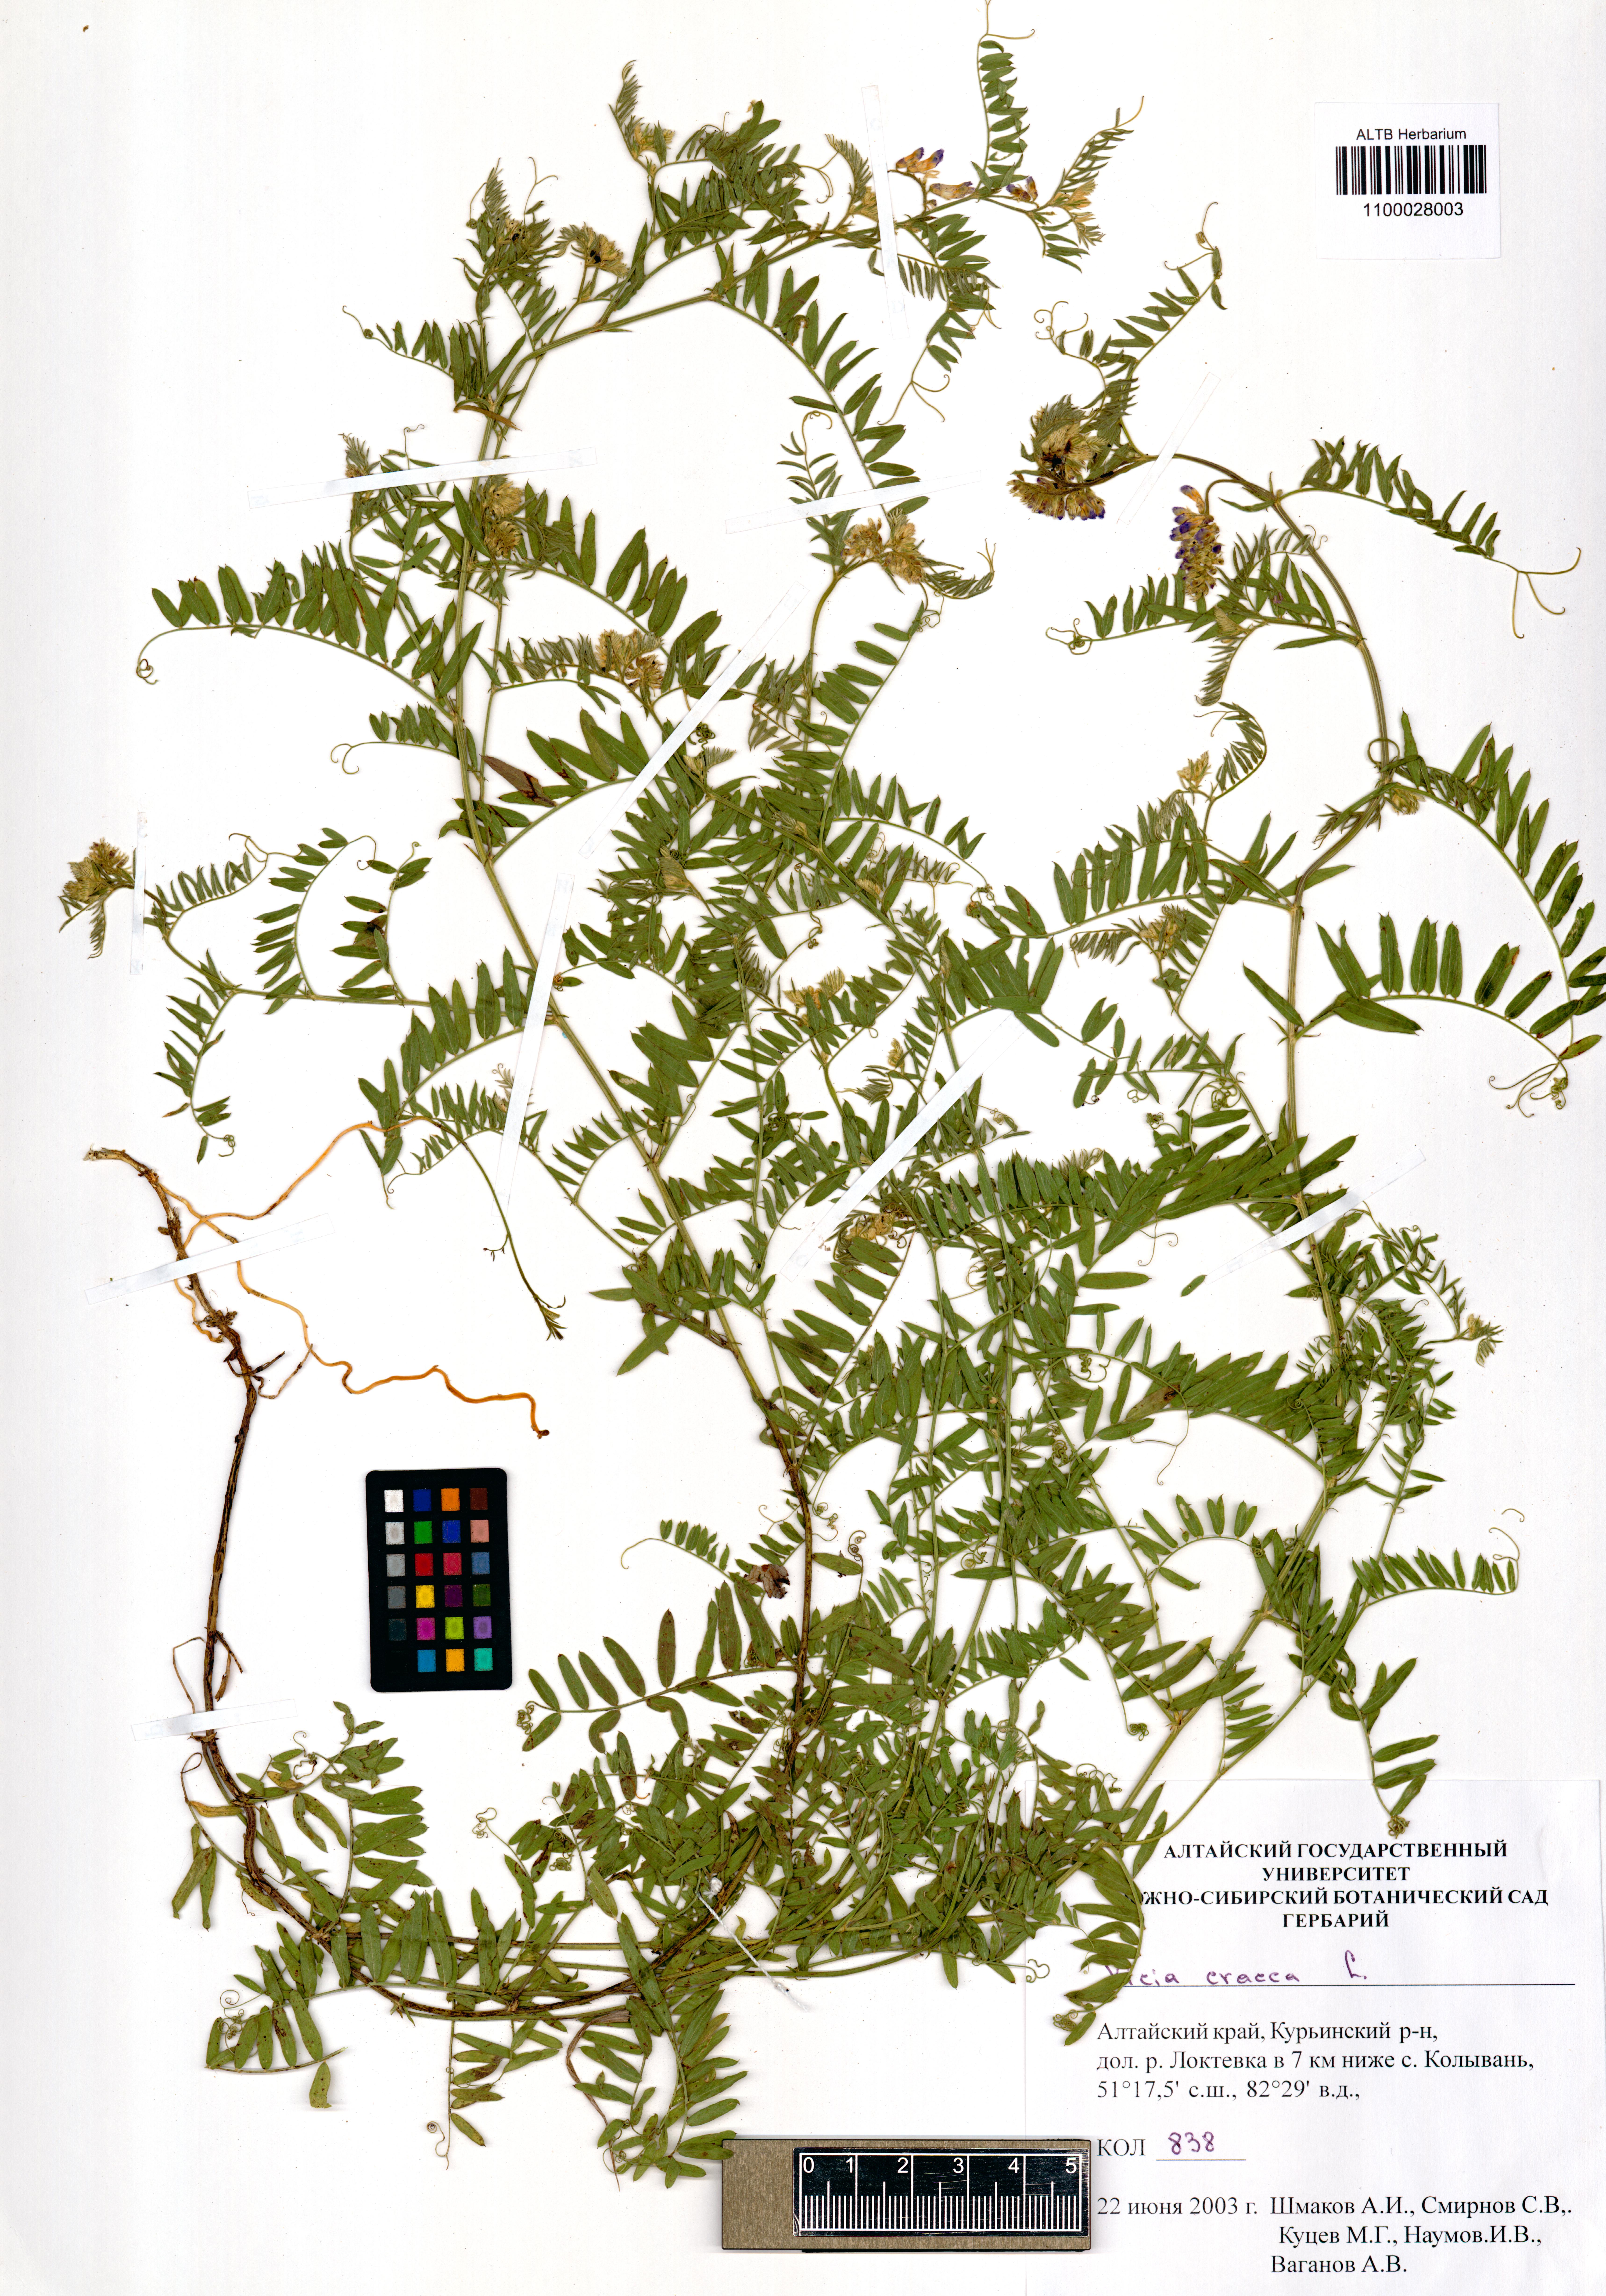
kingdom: Plantae
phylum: Tracheophyta
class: Magnoliopsida
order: Fabales
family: Fabaceae
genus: Vicia
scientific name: Vicia cracca
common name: Bird vetch
